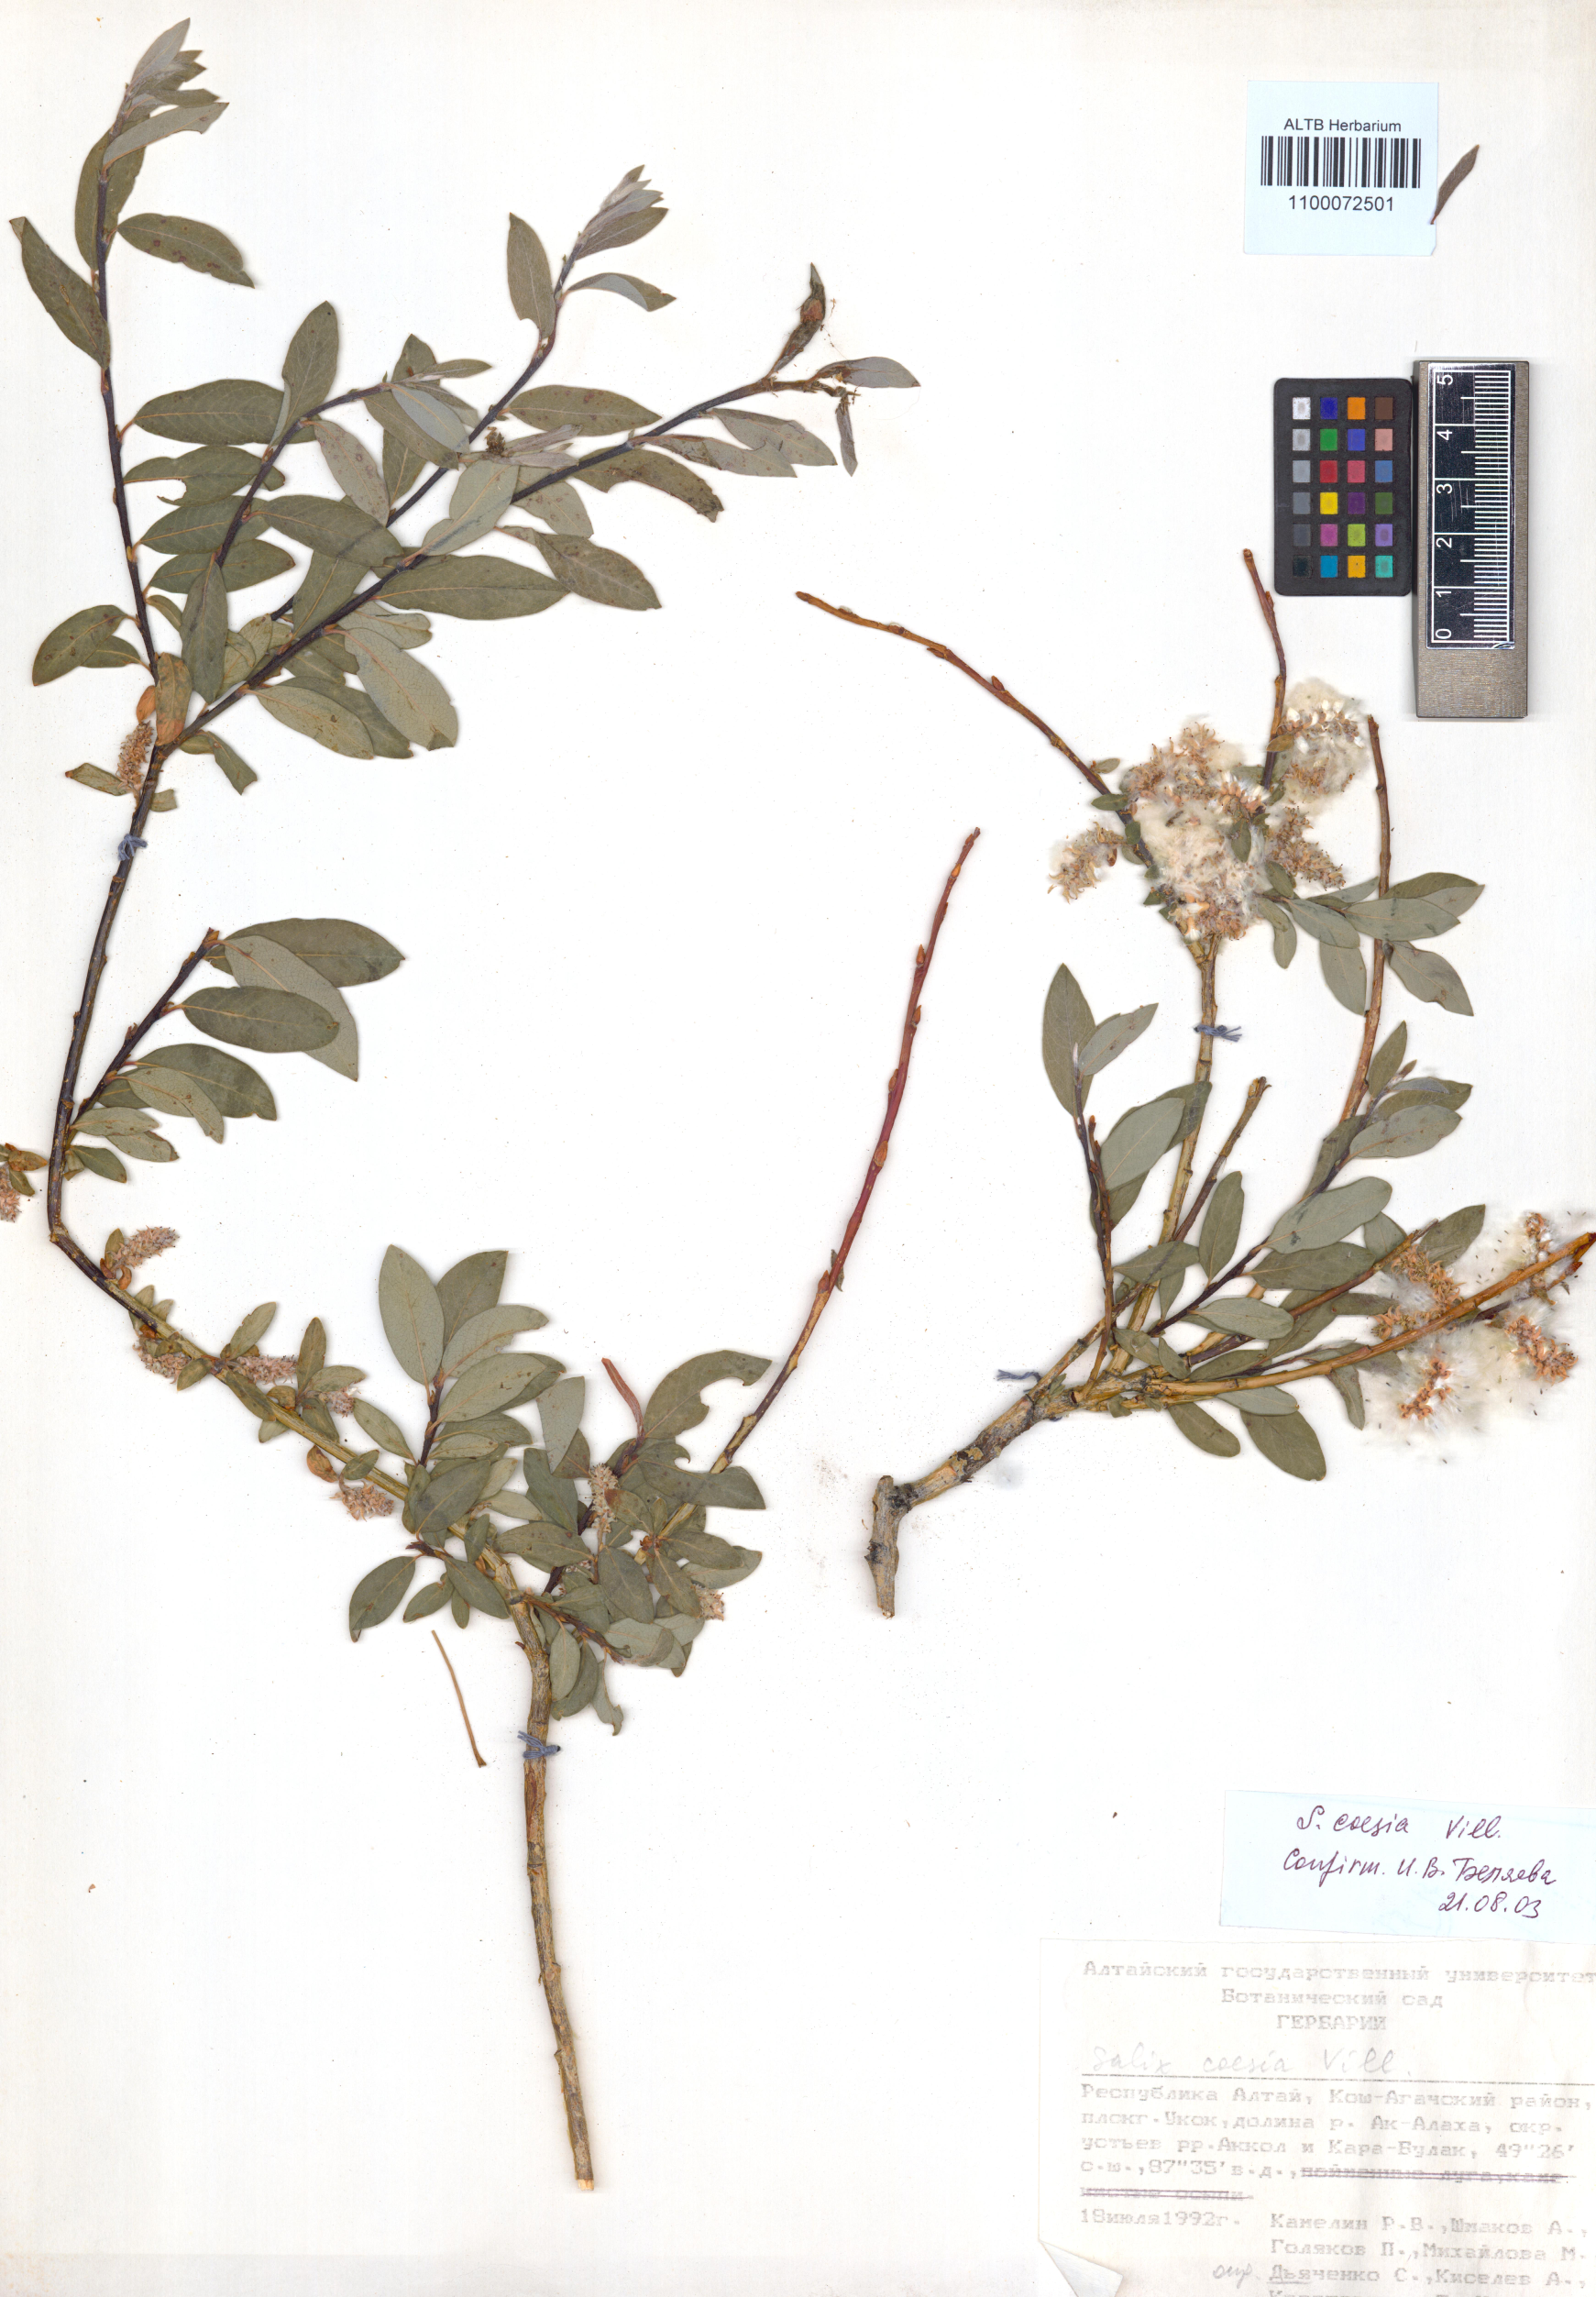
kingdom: Plantae
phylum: Tracheophyta
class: Magnoliopsida
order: Malpighiales
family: Salicaceae
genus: Salix
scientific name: Salix caesia
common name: Blue willow
